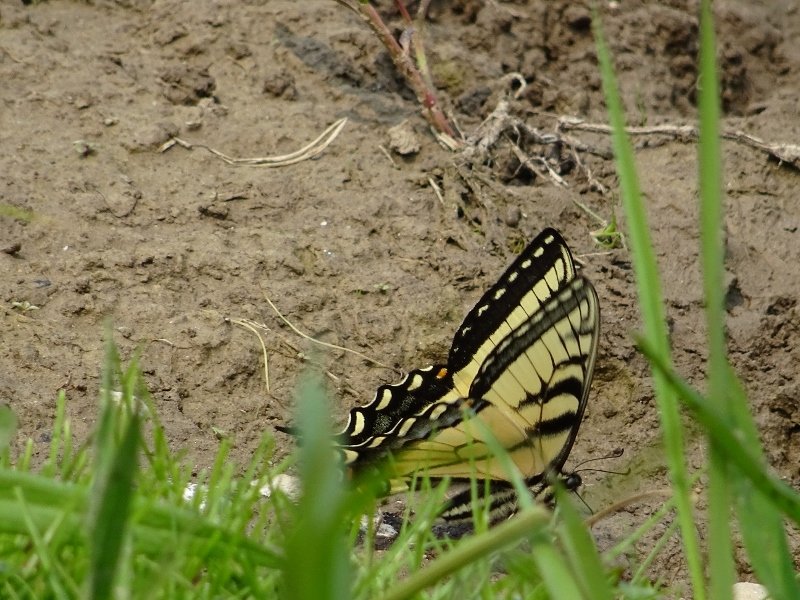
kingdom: Animalia
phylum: Arthropoda
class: Insecta
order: Lepidoptera
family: Papilionidae
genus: Pterourus
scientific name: Pterourus glaucus
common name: Eastern Tiger Swallowtail
